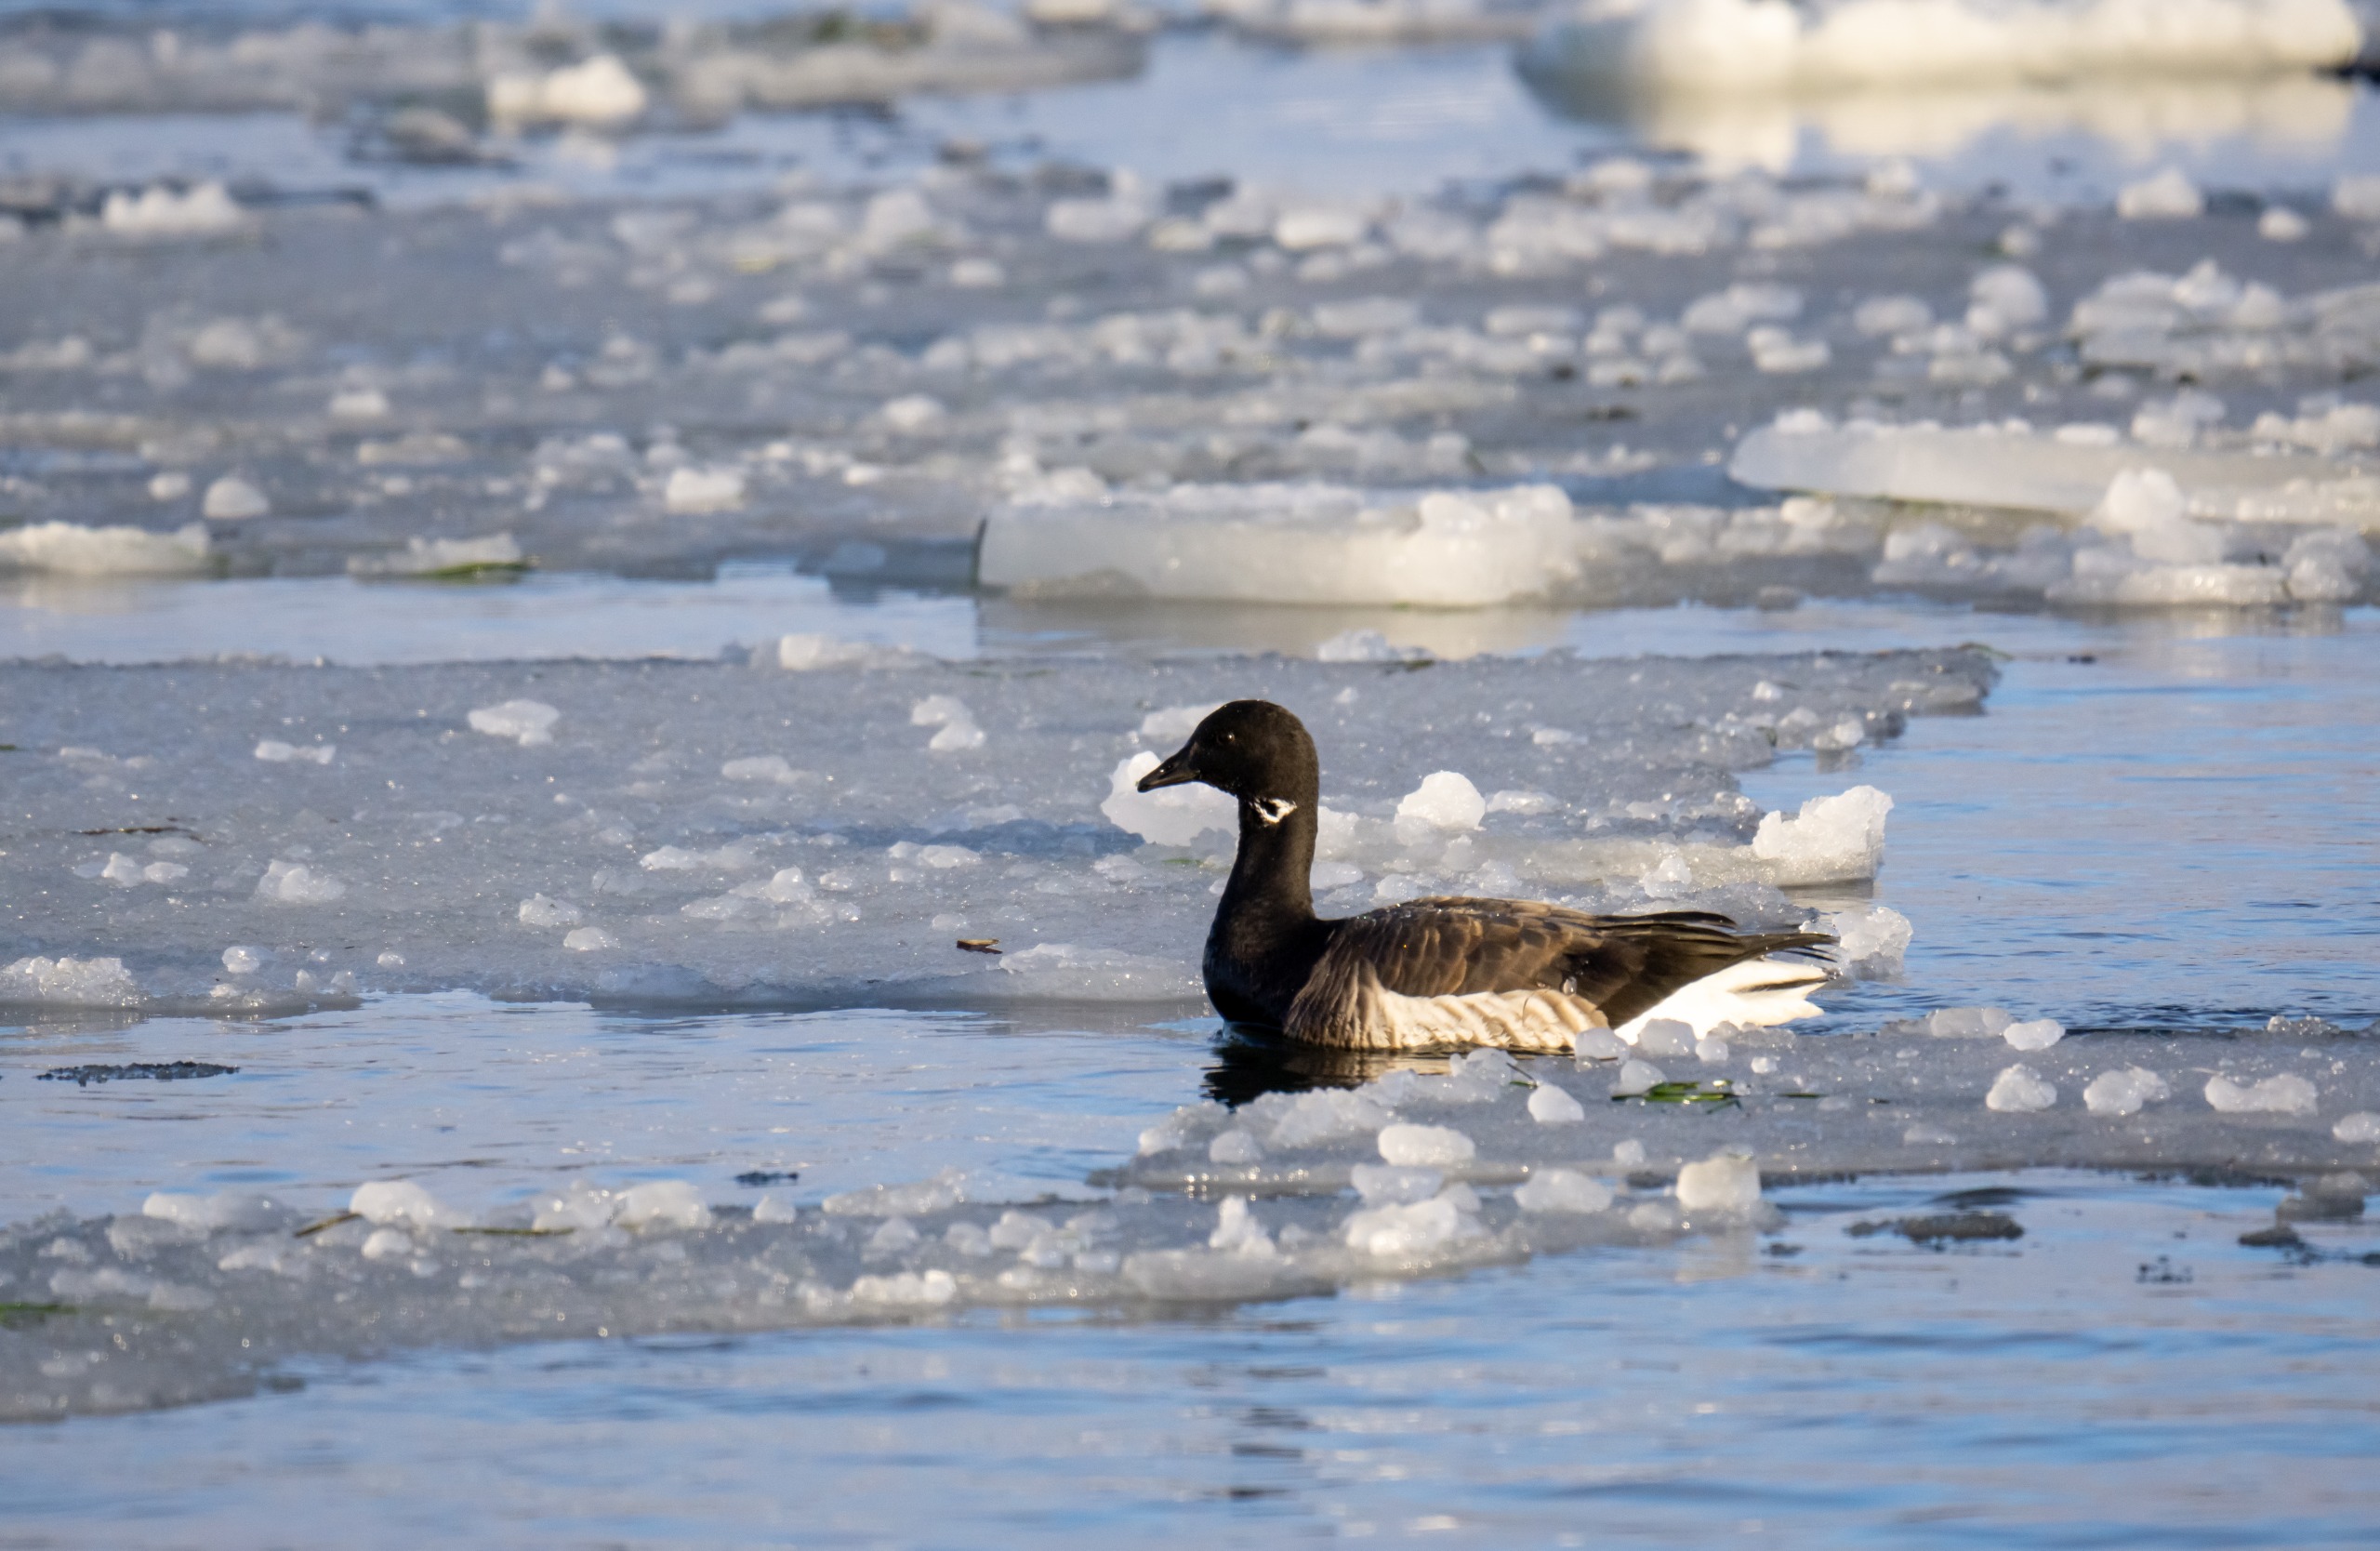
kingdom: Animalia
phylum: Chordata
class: Aves
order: Anseriformes
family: Anatidae
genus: Branta
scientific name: Branta bernicla
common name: Lysbuget knortegås
